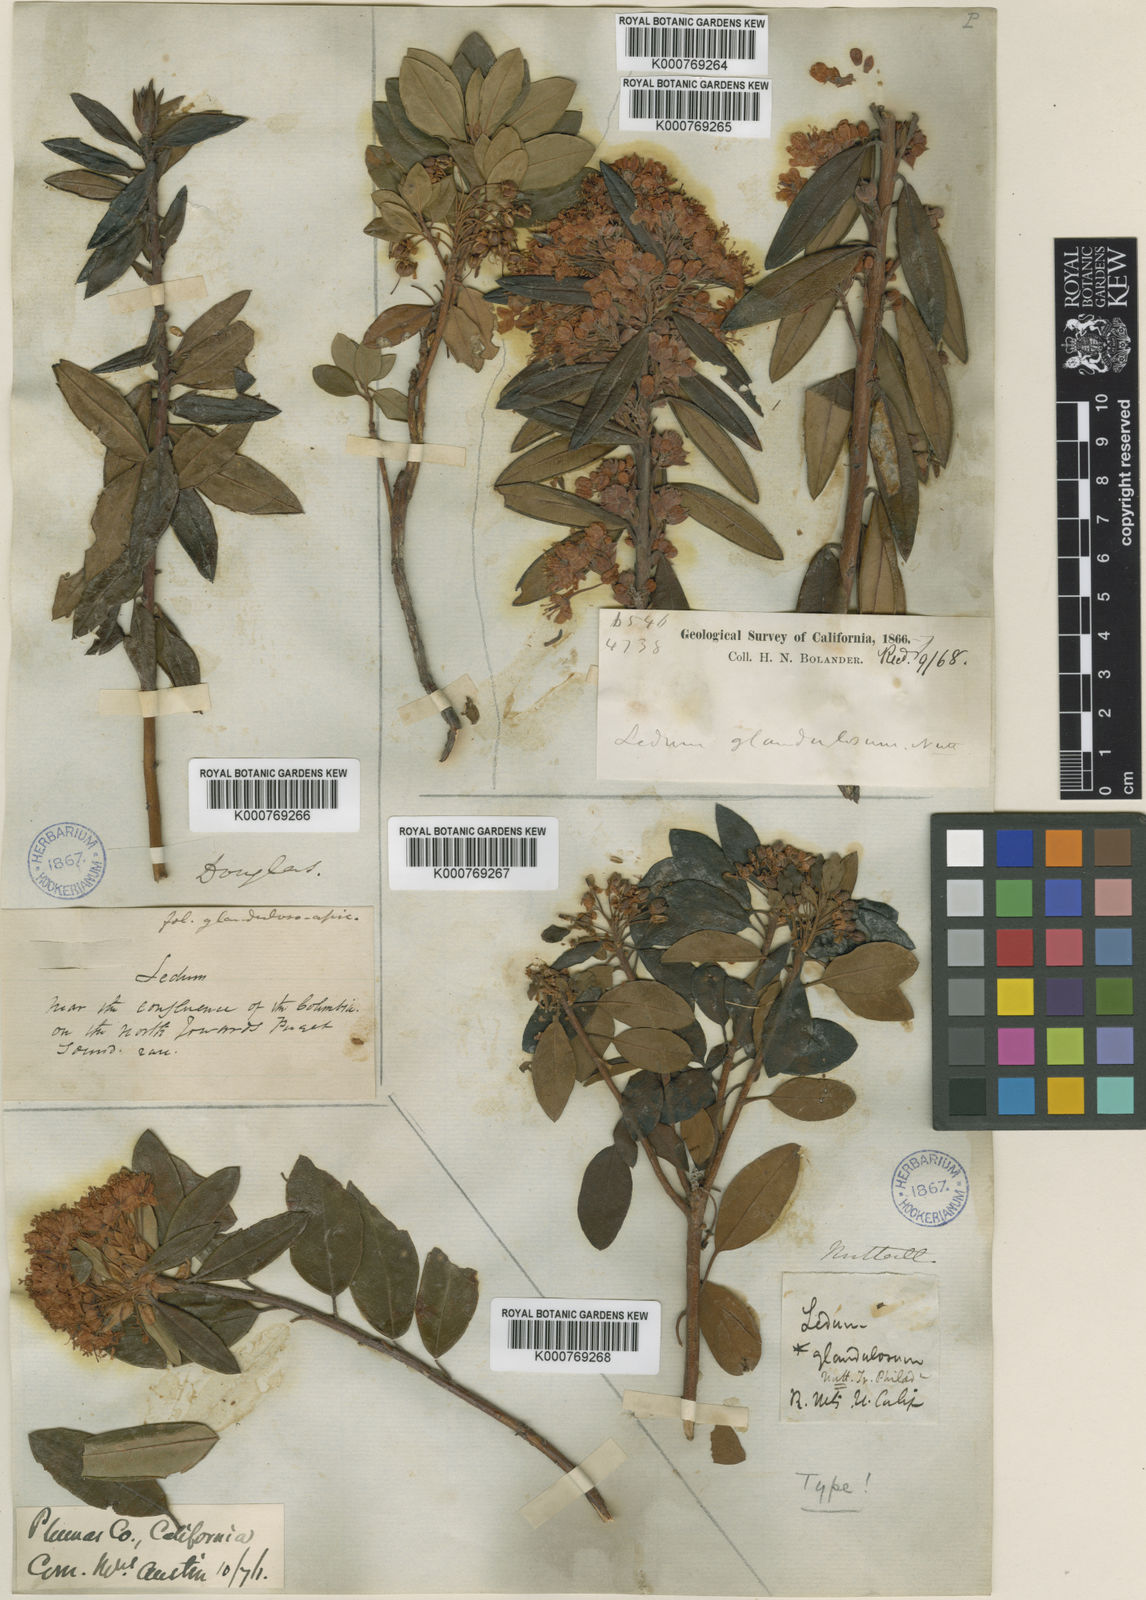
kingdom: Plantae
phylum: Tracheophyta
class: Magnoliopsida
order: Ericales
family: Ericaceae
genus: Rhododendron
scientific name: Rhododendron columbianum
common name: Western labrador tea
